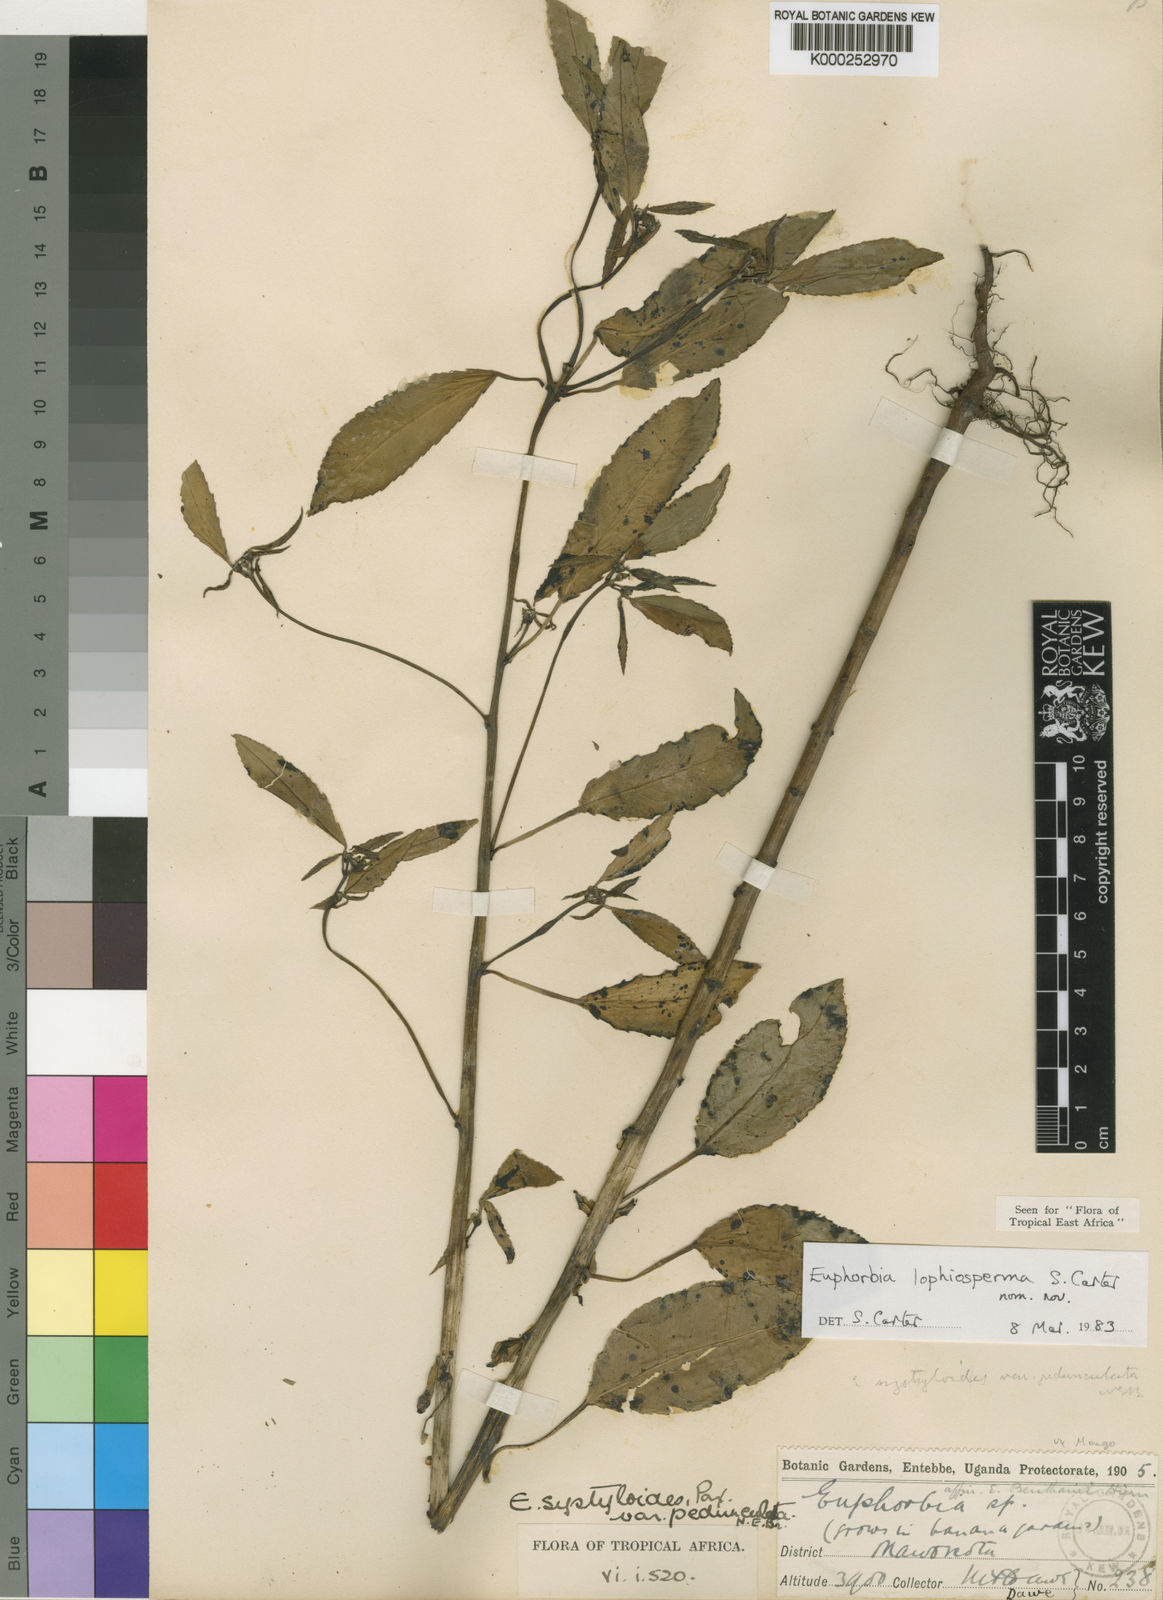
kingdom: Plantae
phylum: Tracheophyta
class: Magnoliopsida
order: Malpighiales
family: Euphorbiaceae
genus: Euphorbia
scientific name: Euphorbia lophiosperma
